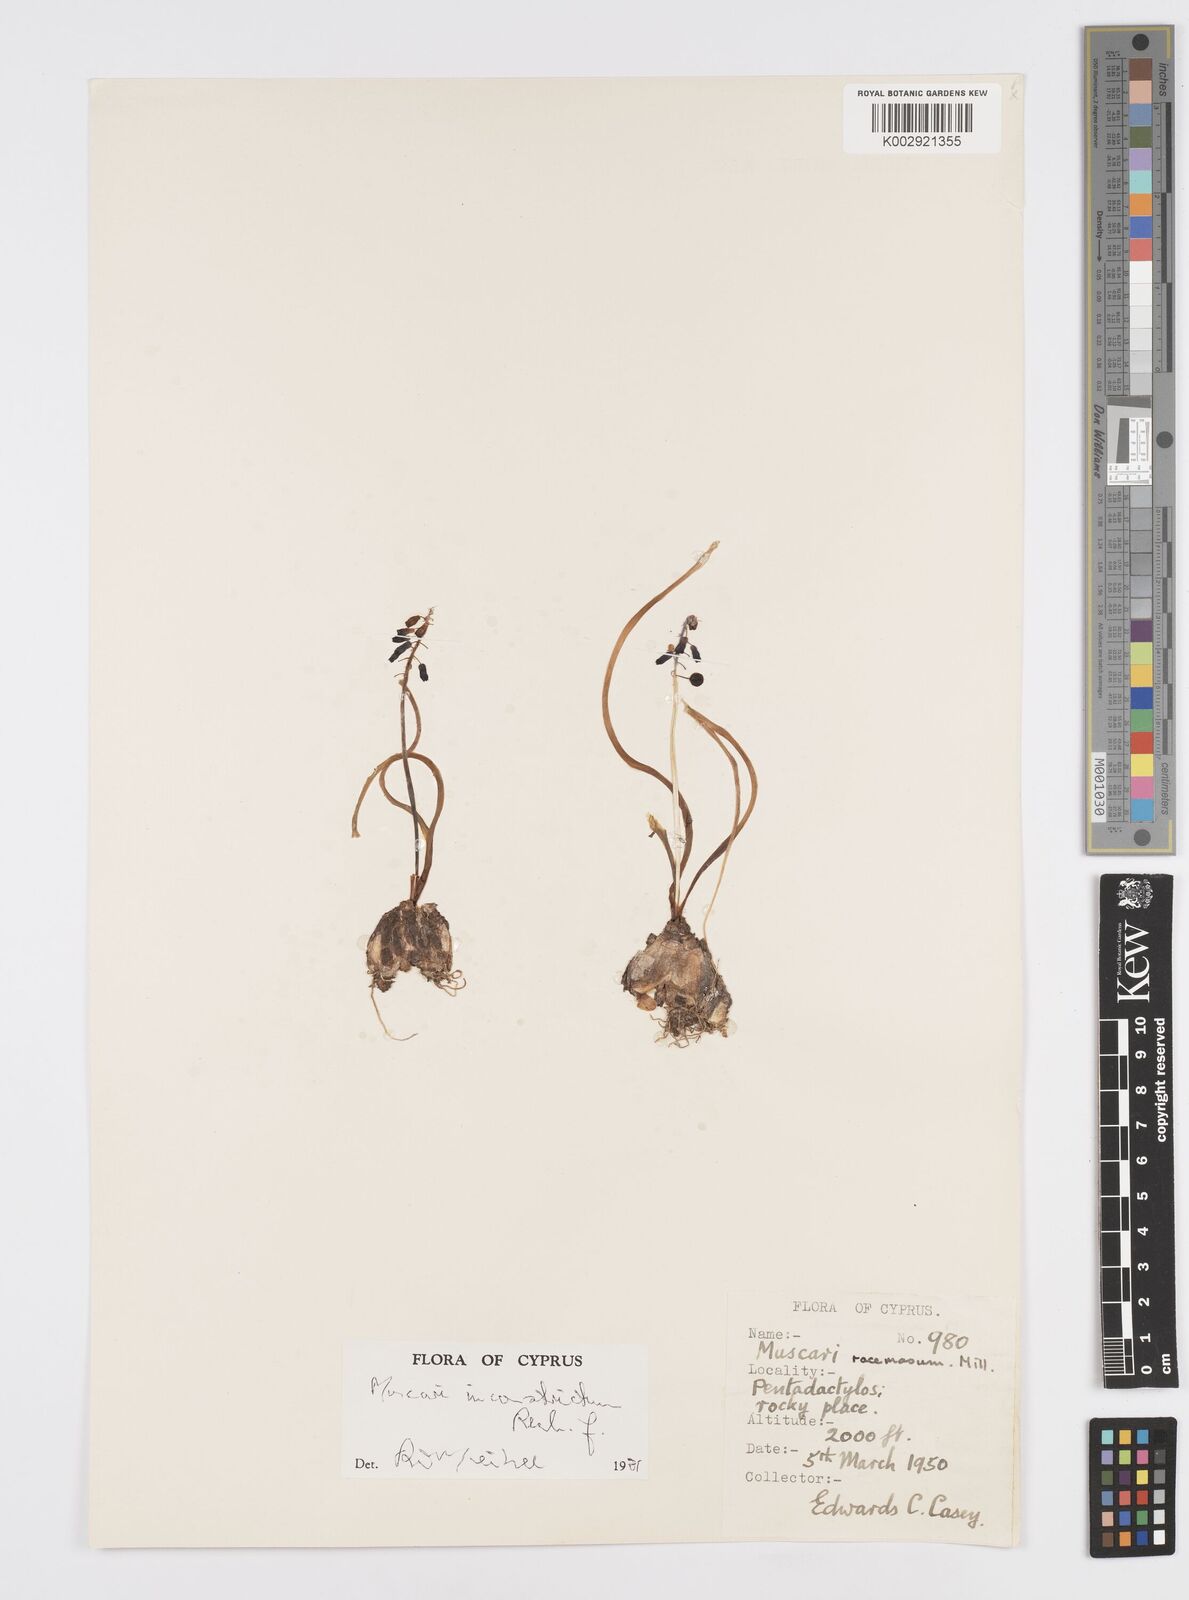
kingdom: Plantae
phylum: Tracheophyta
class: Liliopsida
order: Asparagales
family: Asparagaceae
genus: Muscari
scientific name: Muscari inconstrictum
